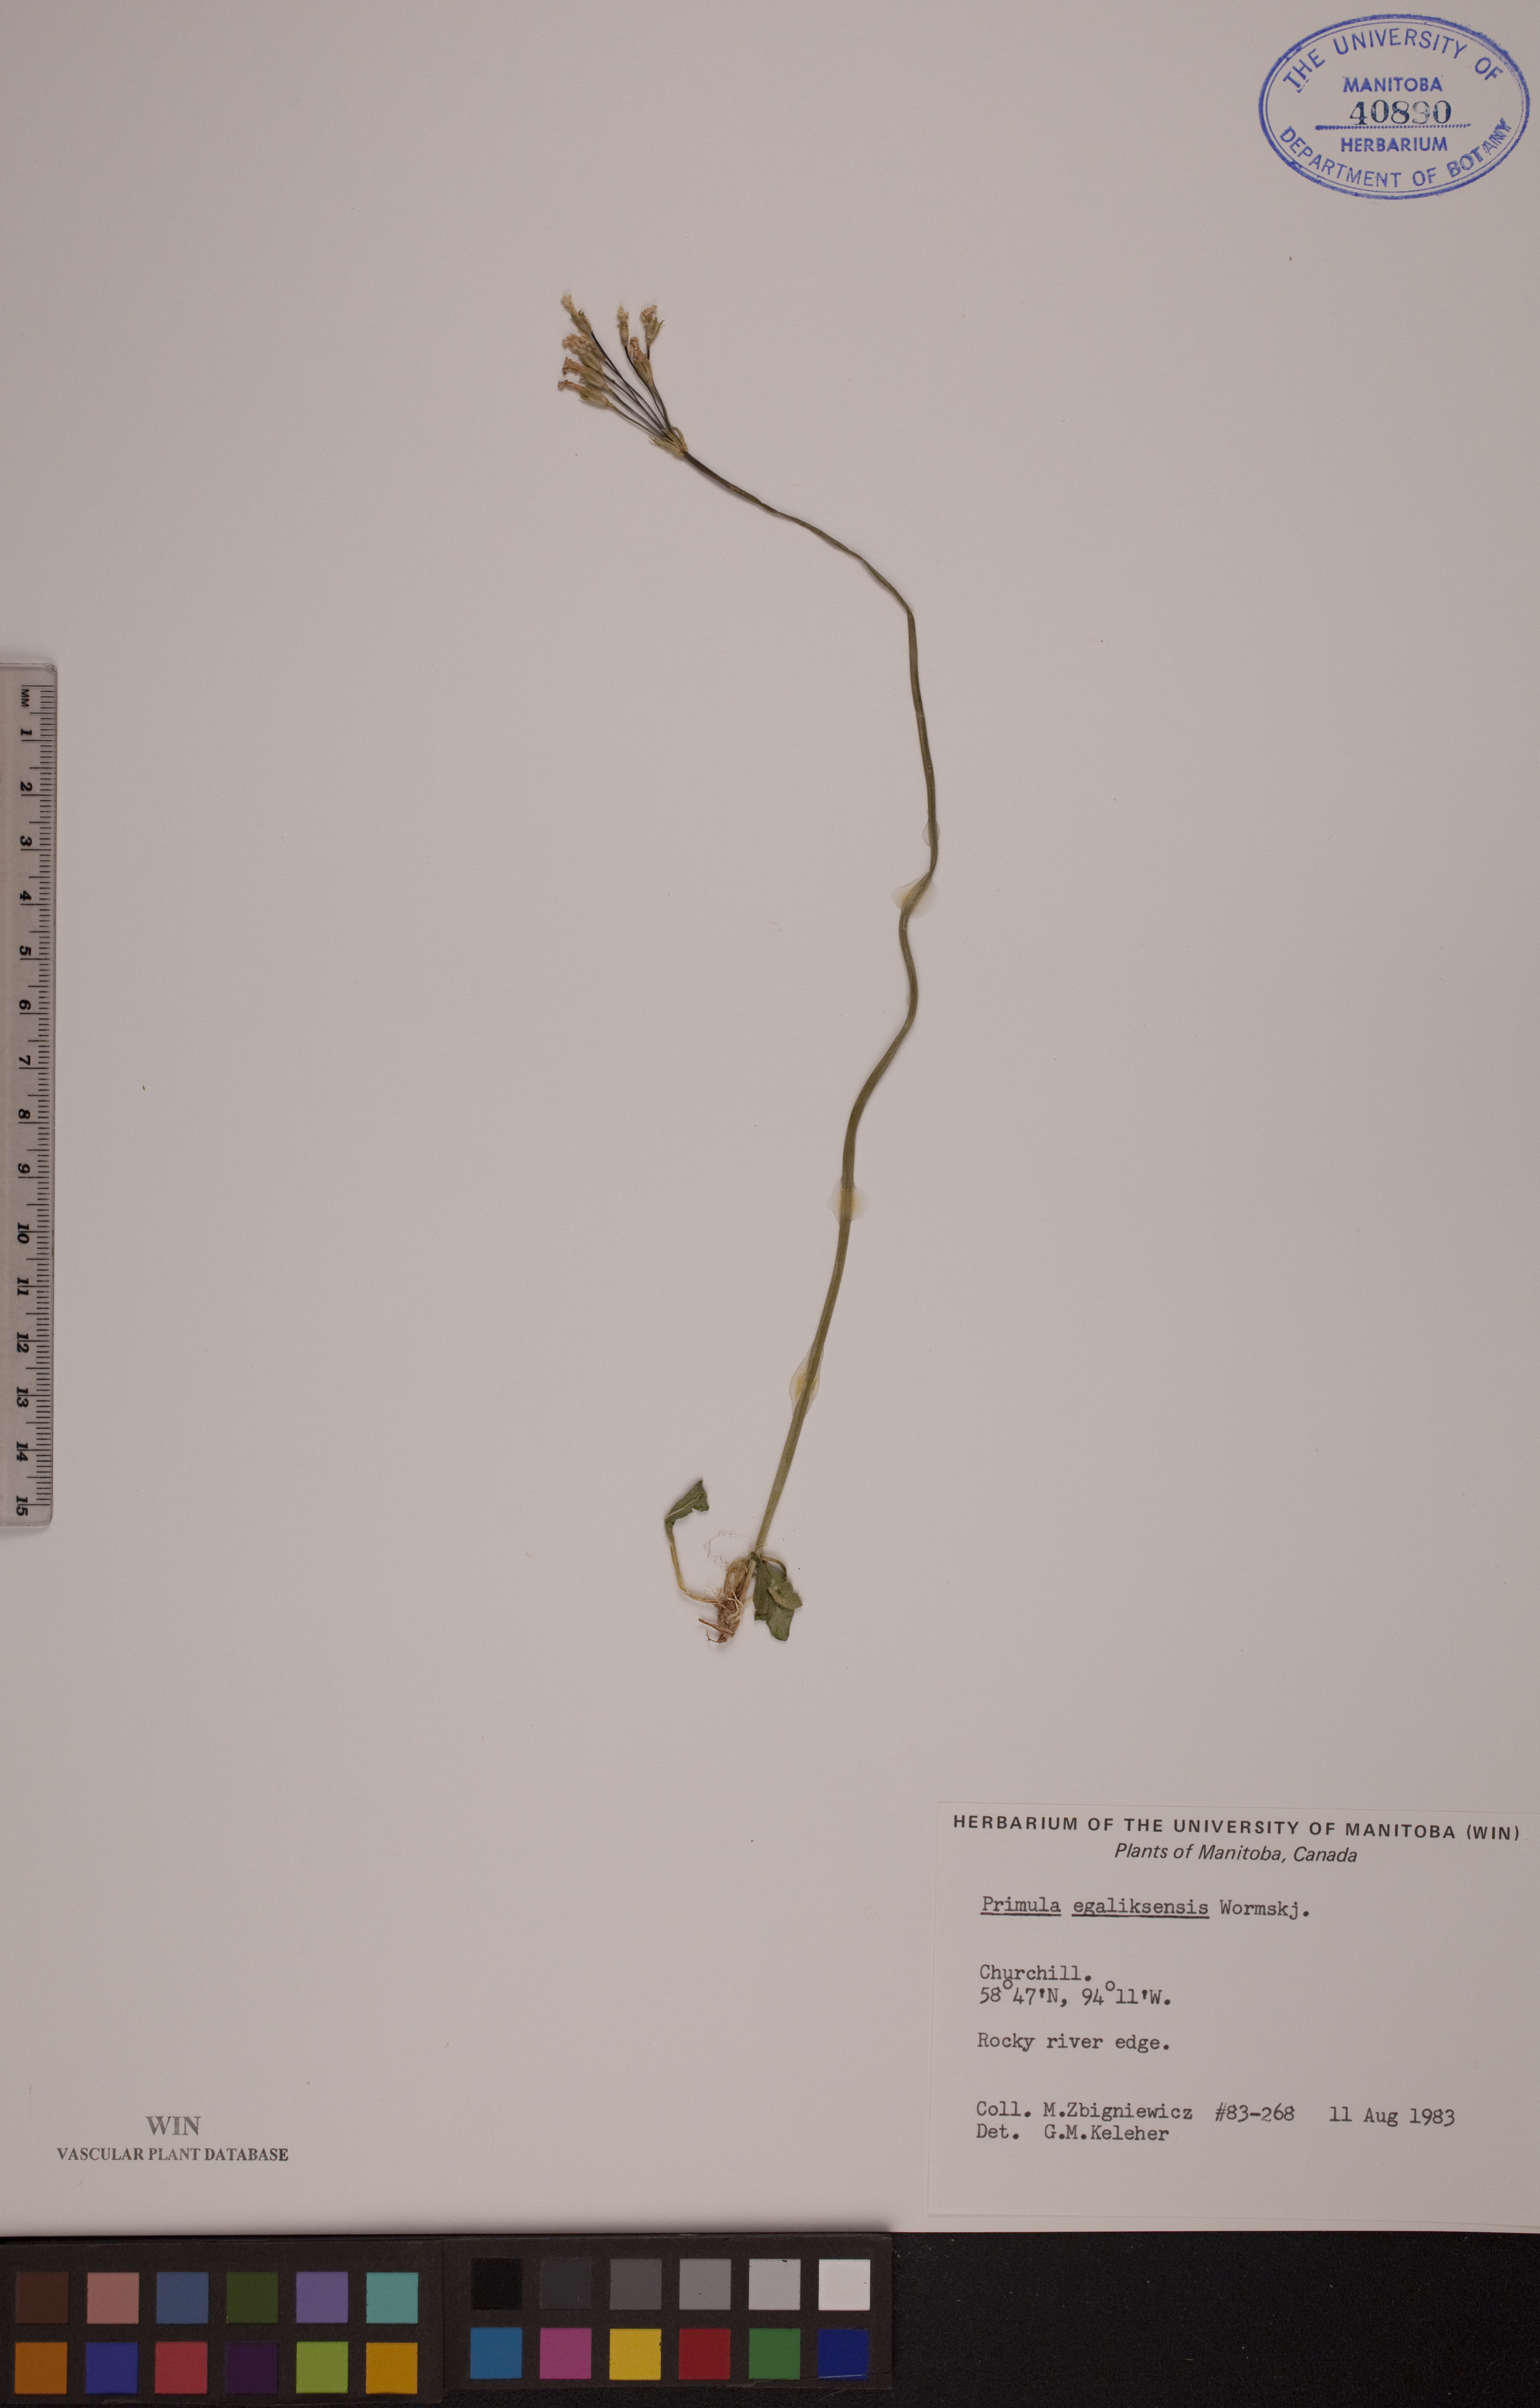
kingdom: Plantae
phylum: Tracheophyta
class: Magnoliopsida
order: Ericales
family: Primulaceae
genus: Primula
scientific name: Primula egaliksensis
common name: Greenland primrose
